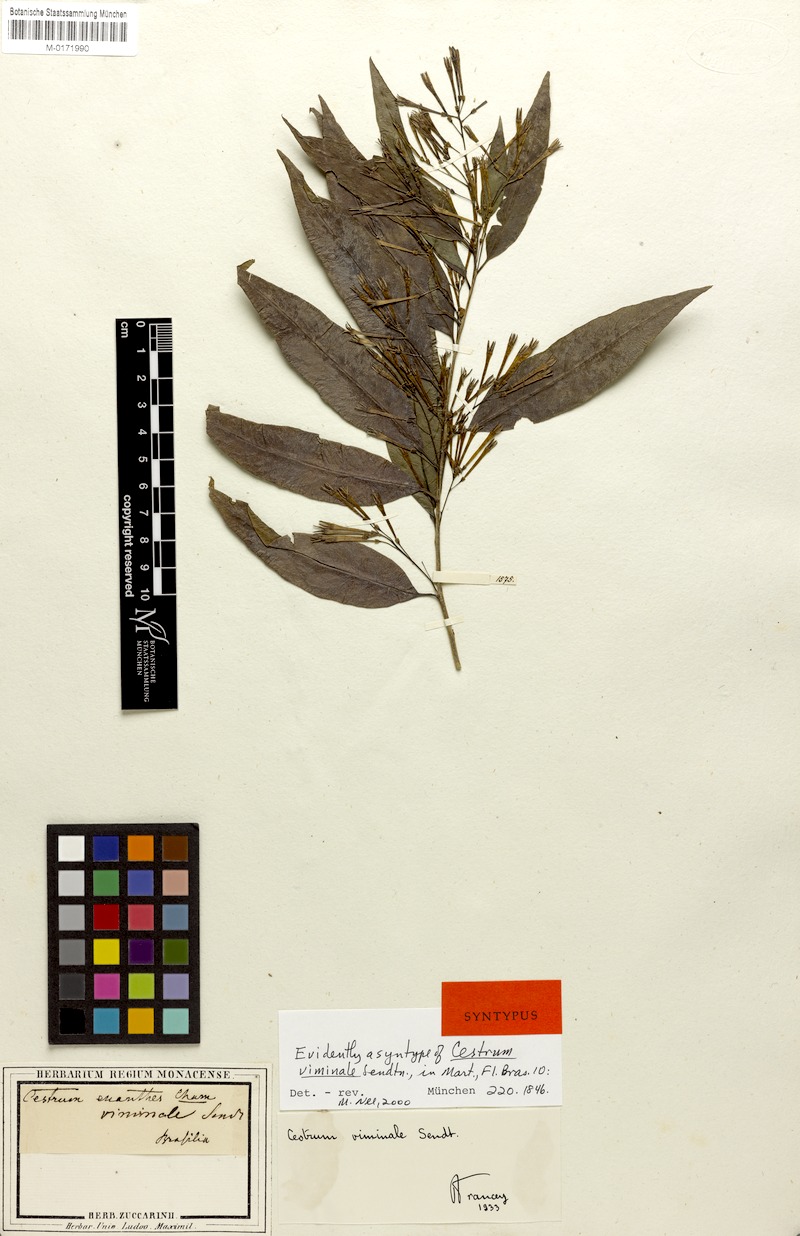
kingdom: Plantae
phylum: Tracheophyta
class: Magnoliopsida
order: Solanales
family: Solanaceae
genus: Cestrum
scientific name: Cestrum montanum
